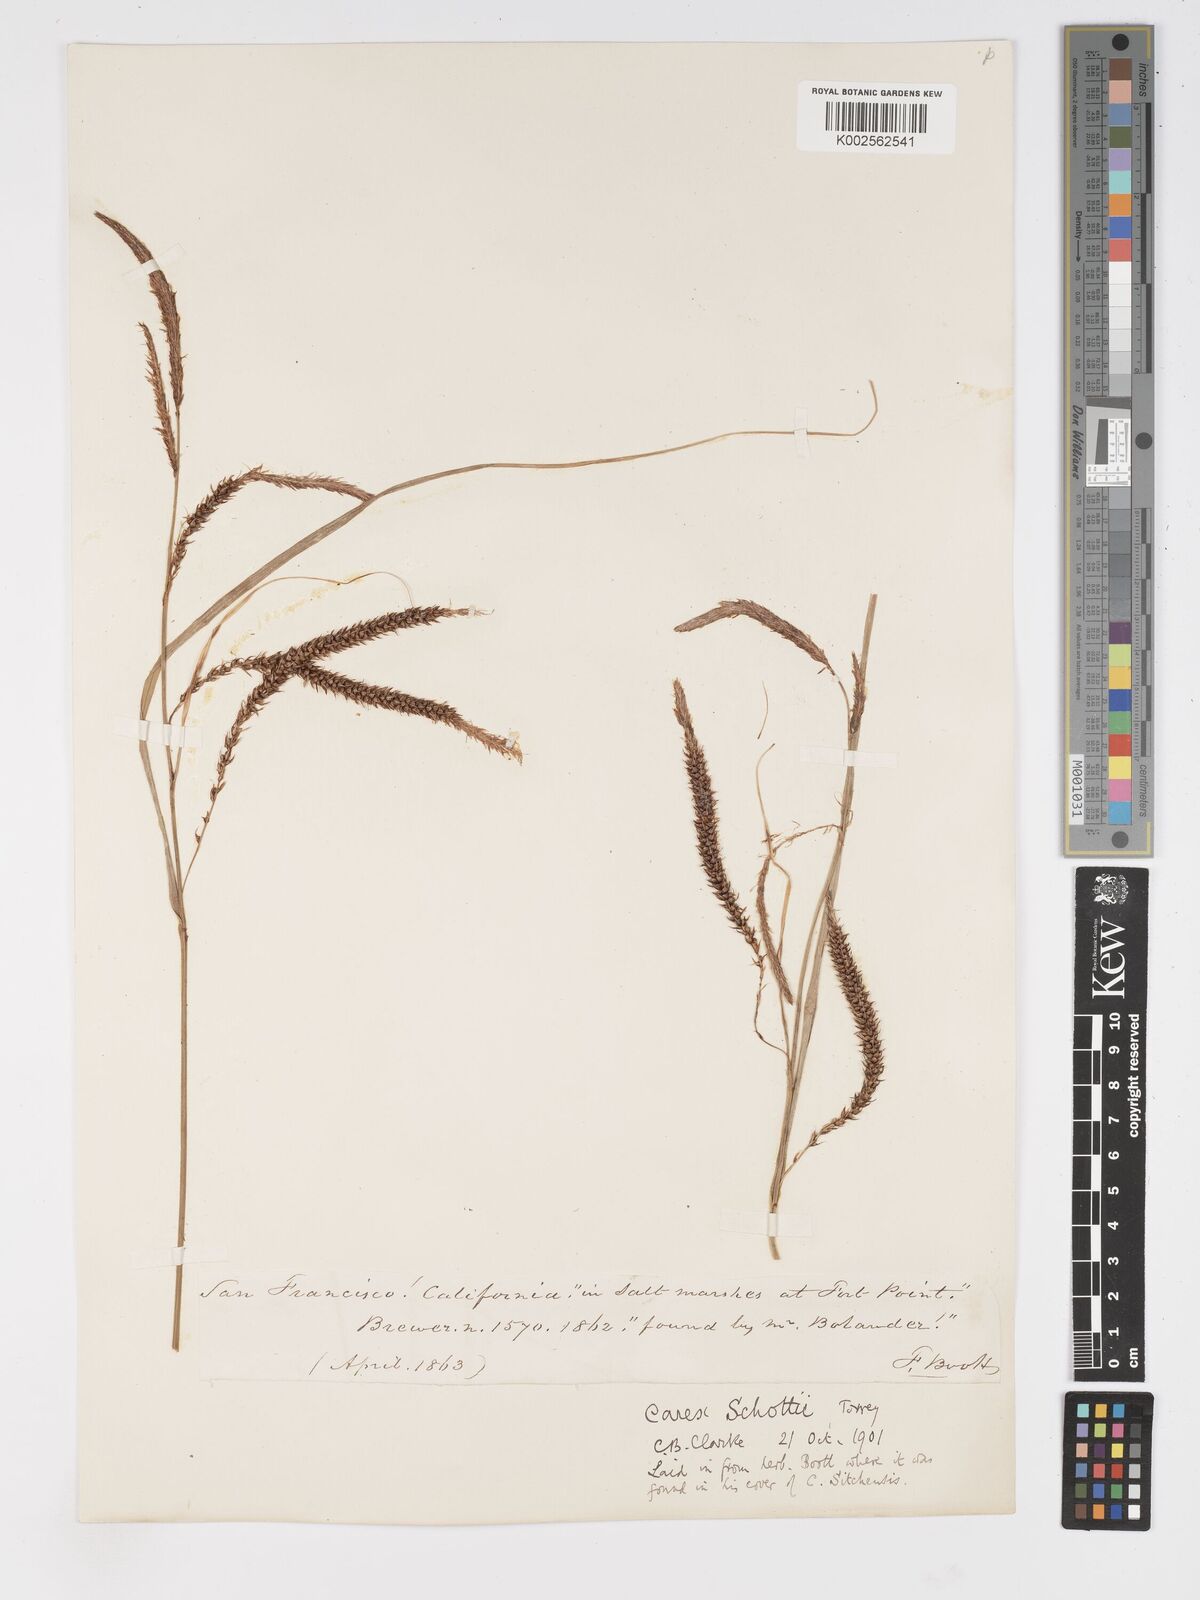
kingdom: Plantae
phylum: Tracheophyta
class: Liliopsida
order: Poales
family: Cyperaceae
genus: Carex
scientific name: Carex schottii
